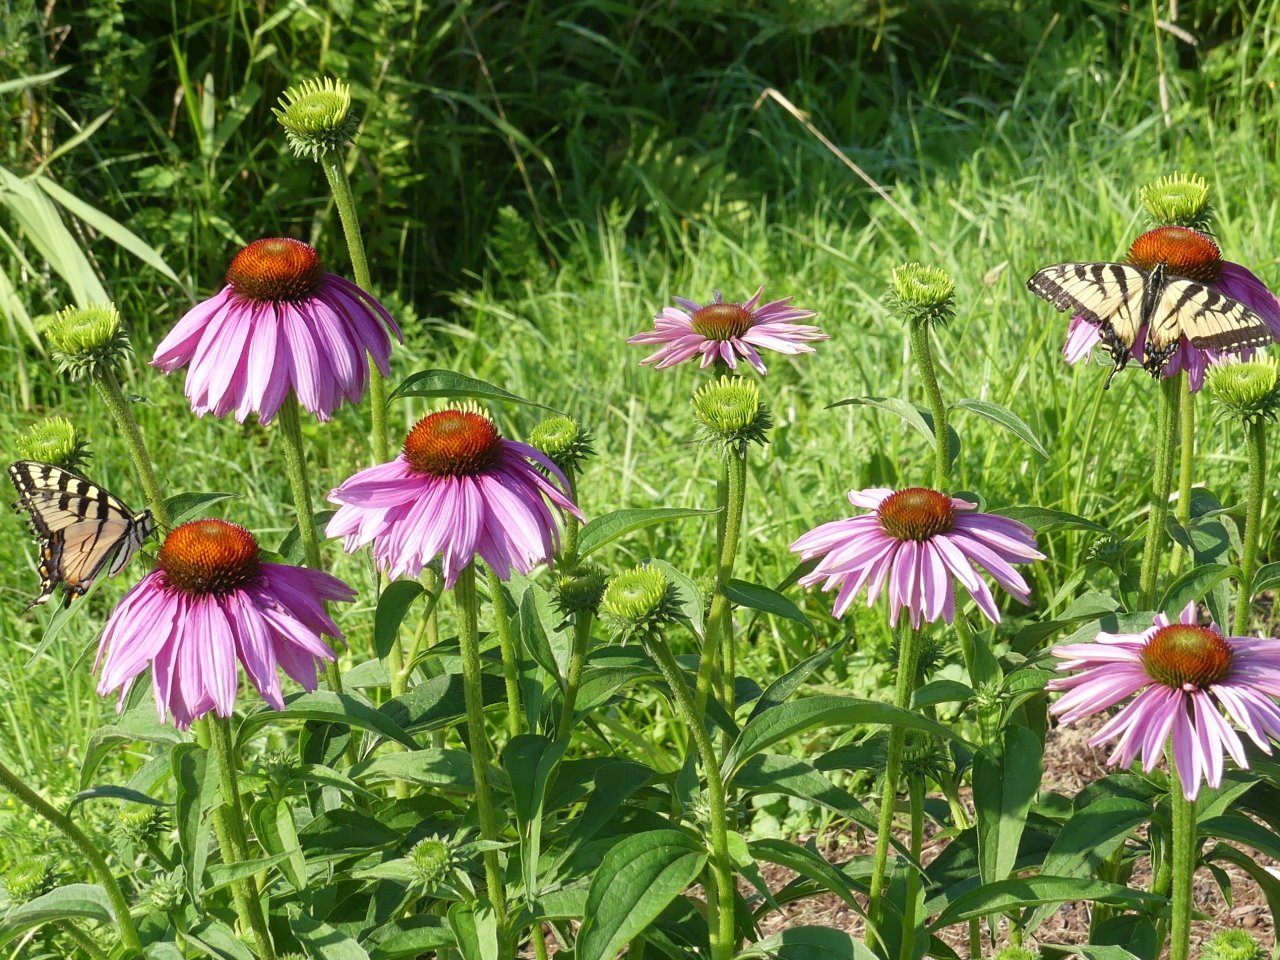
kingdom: Animalia
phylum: Arthropoda
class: Insecta
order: Lepidoptera
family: Papilionidae
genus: Pterourus
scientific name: Pterourus glaucus
